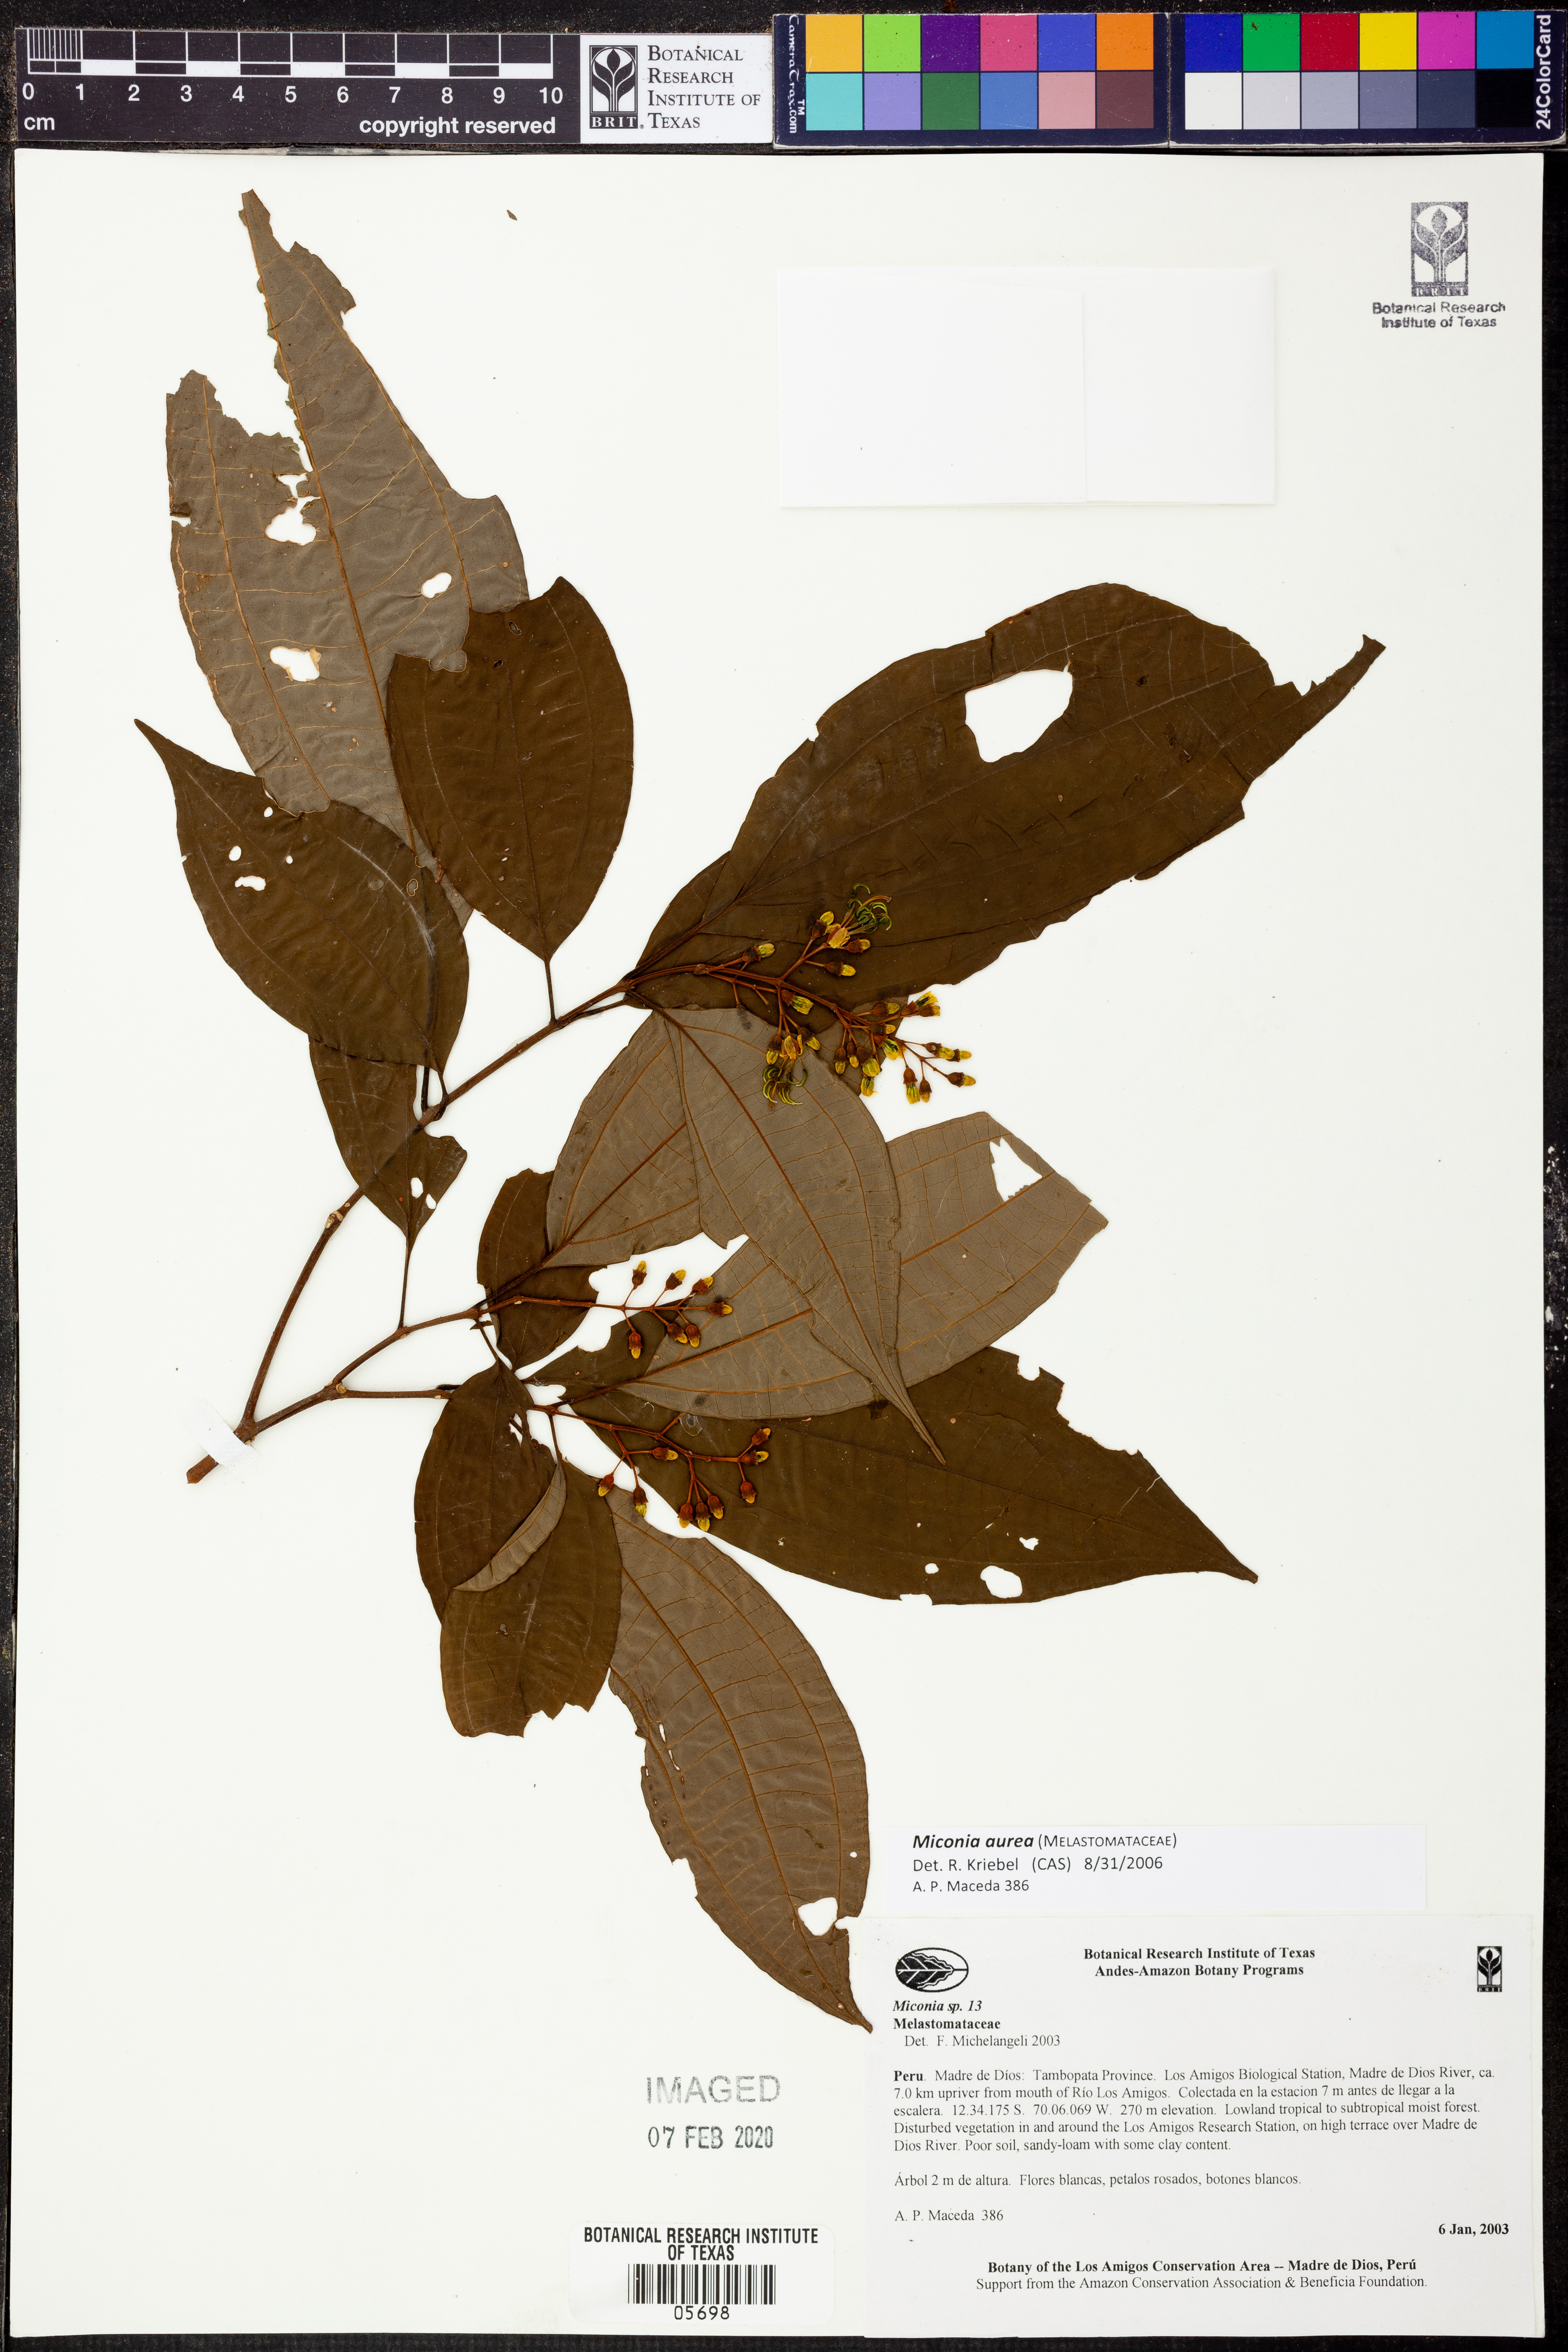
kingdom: Plantae
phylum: Tracheophyta
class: Magnoliopsida
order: Myrtales
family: Melastomataceae
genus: Miconia
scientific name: Miconia aurea
